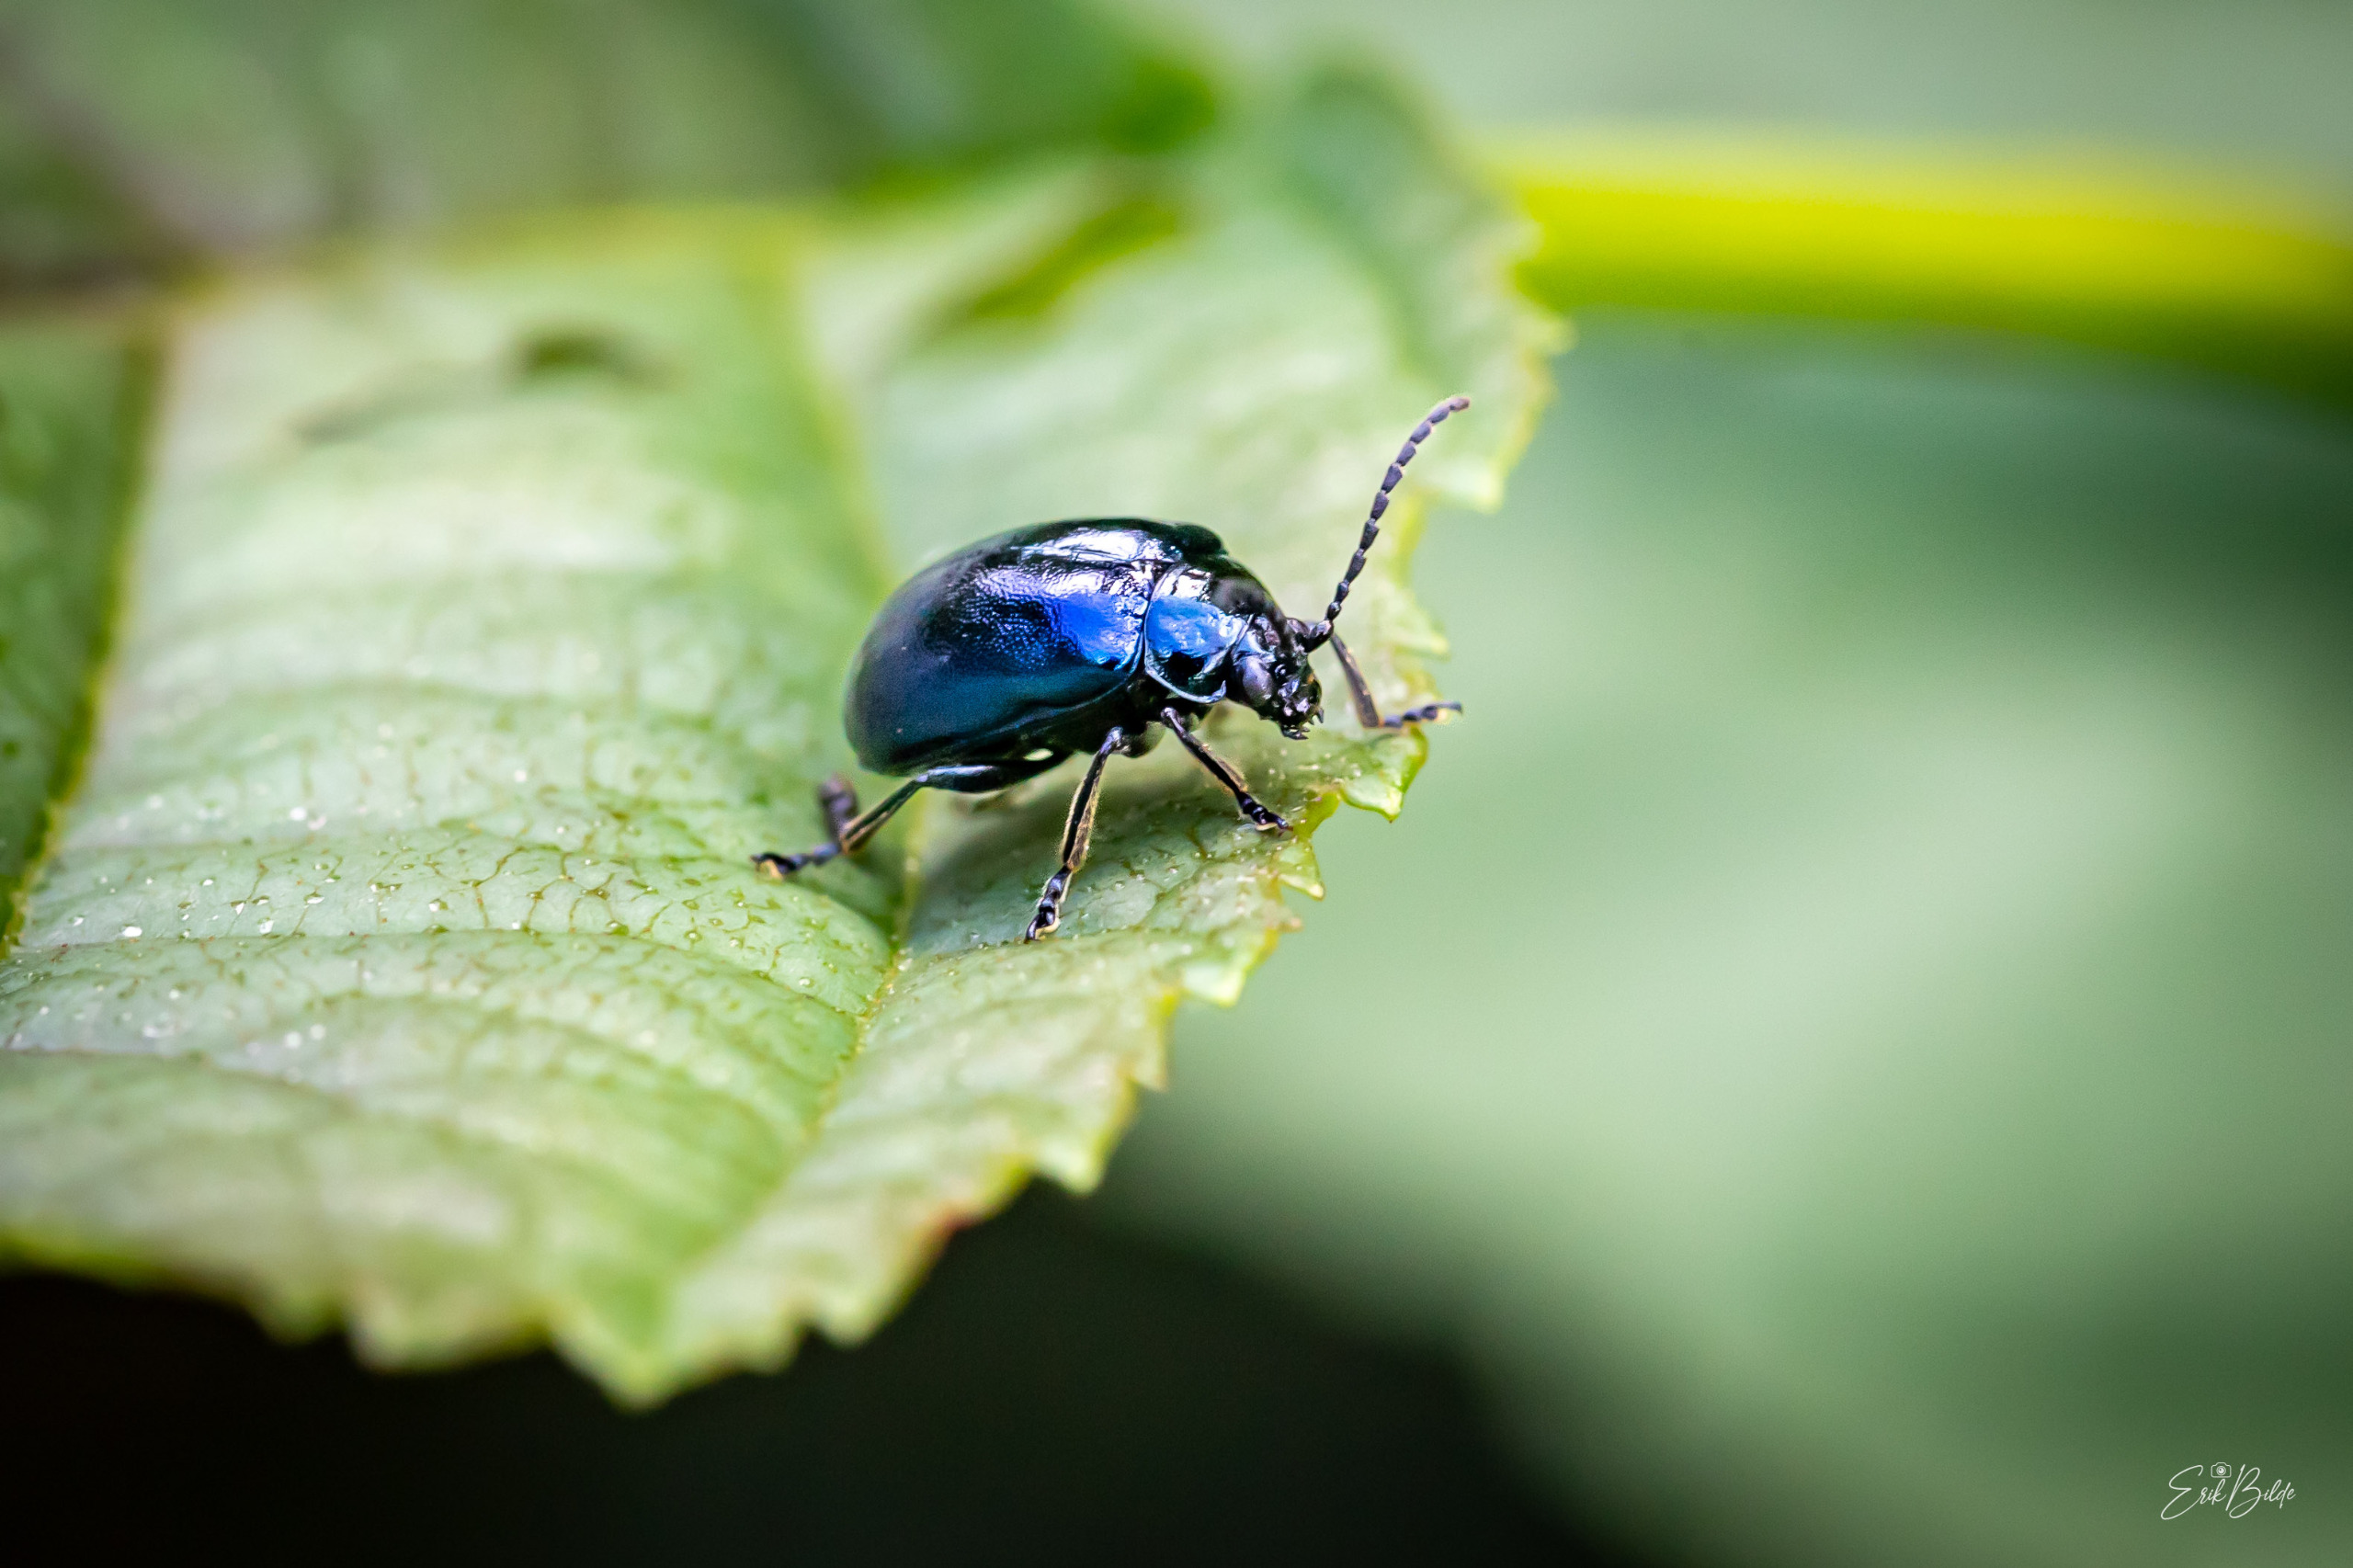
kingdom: Animalia
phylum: Arthropoda
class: Insecta
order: Coleoptera
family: Chrysomelidae
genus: Agelastica
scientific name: Agelastica alni
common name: Ellebladbille
